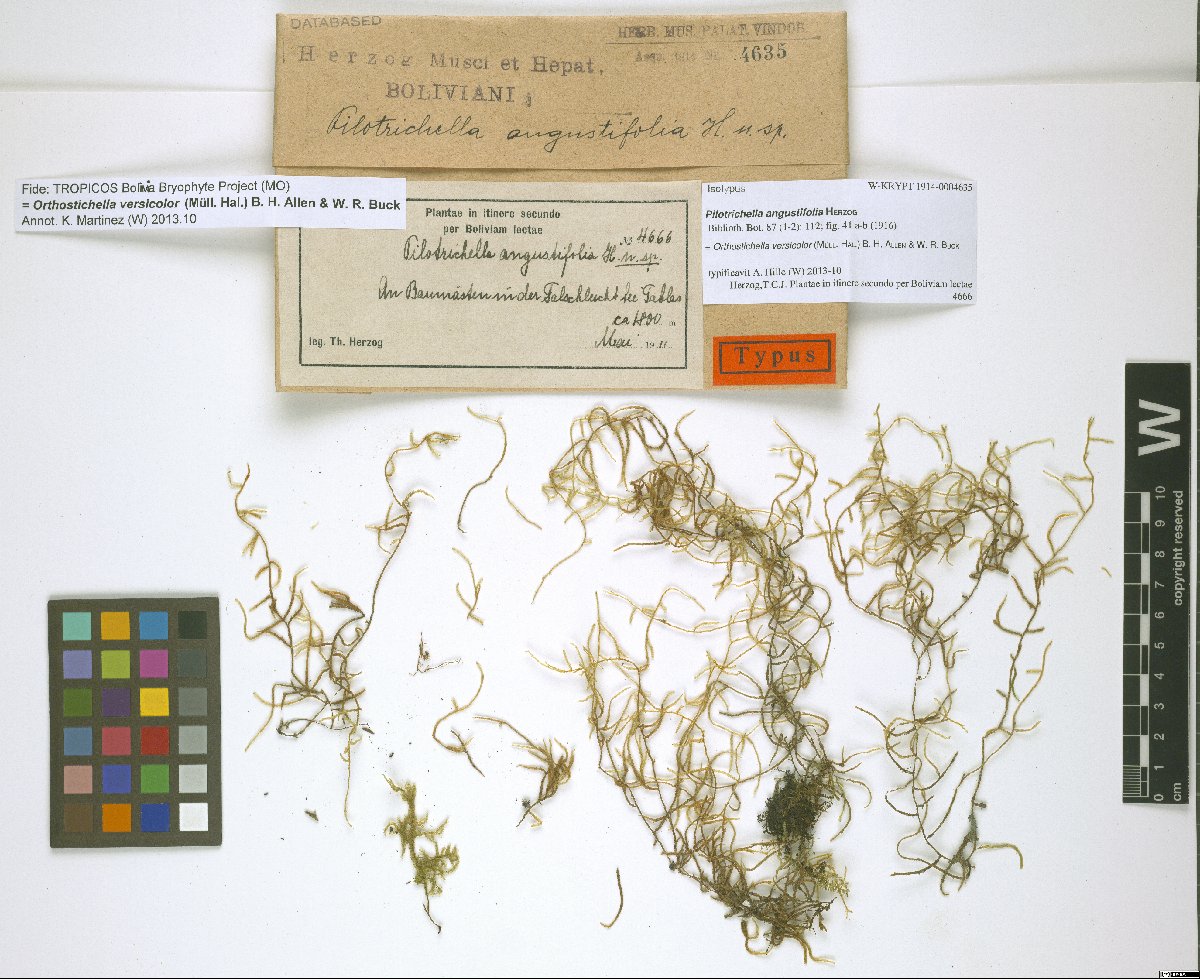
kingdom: Plantae
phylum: Bryophyta
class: Bryopsida
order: Hypnales
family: Orthostichellaceae
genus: Orthostichella
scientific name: Orthostichella versicolor
